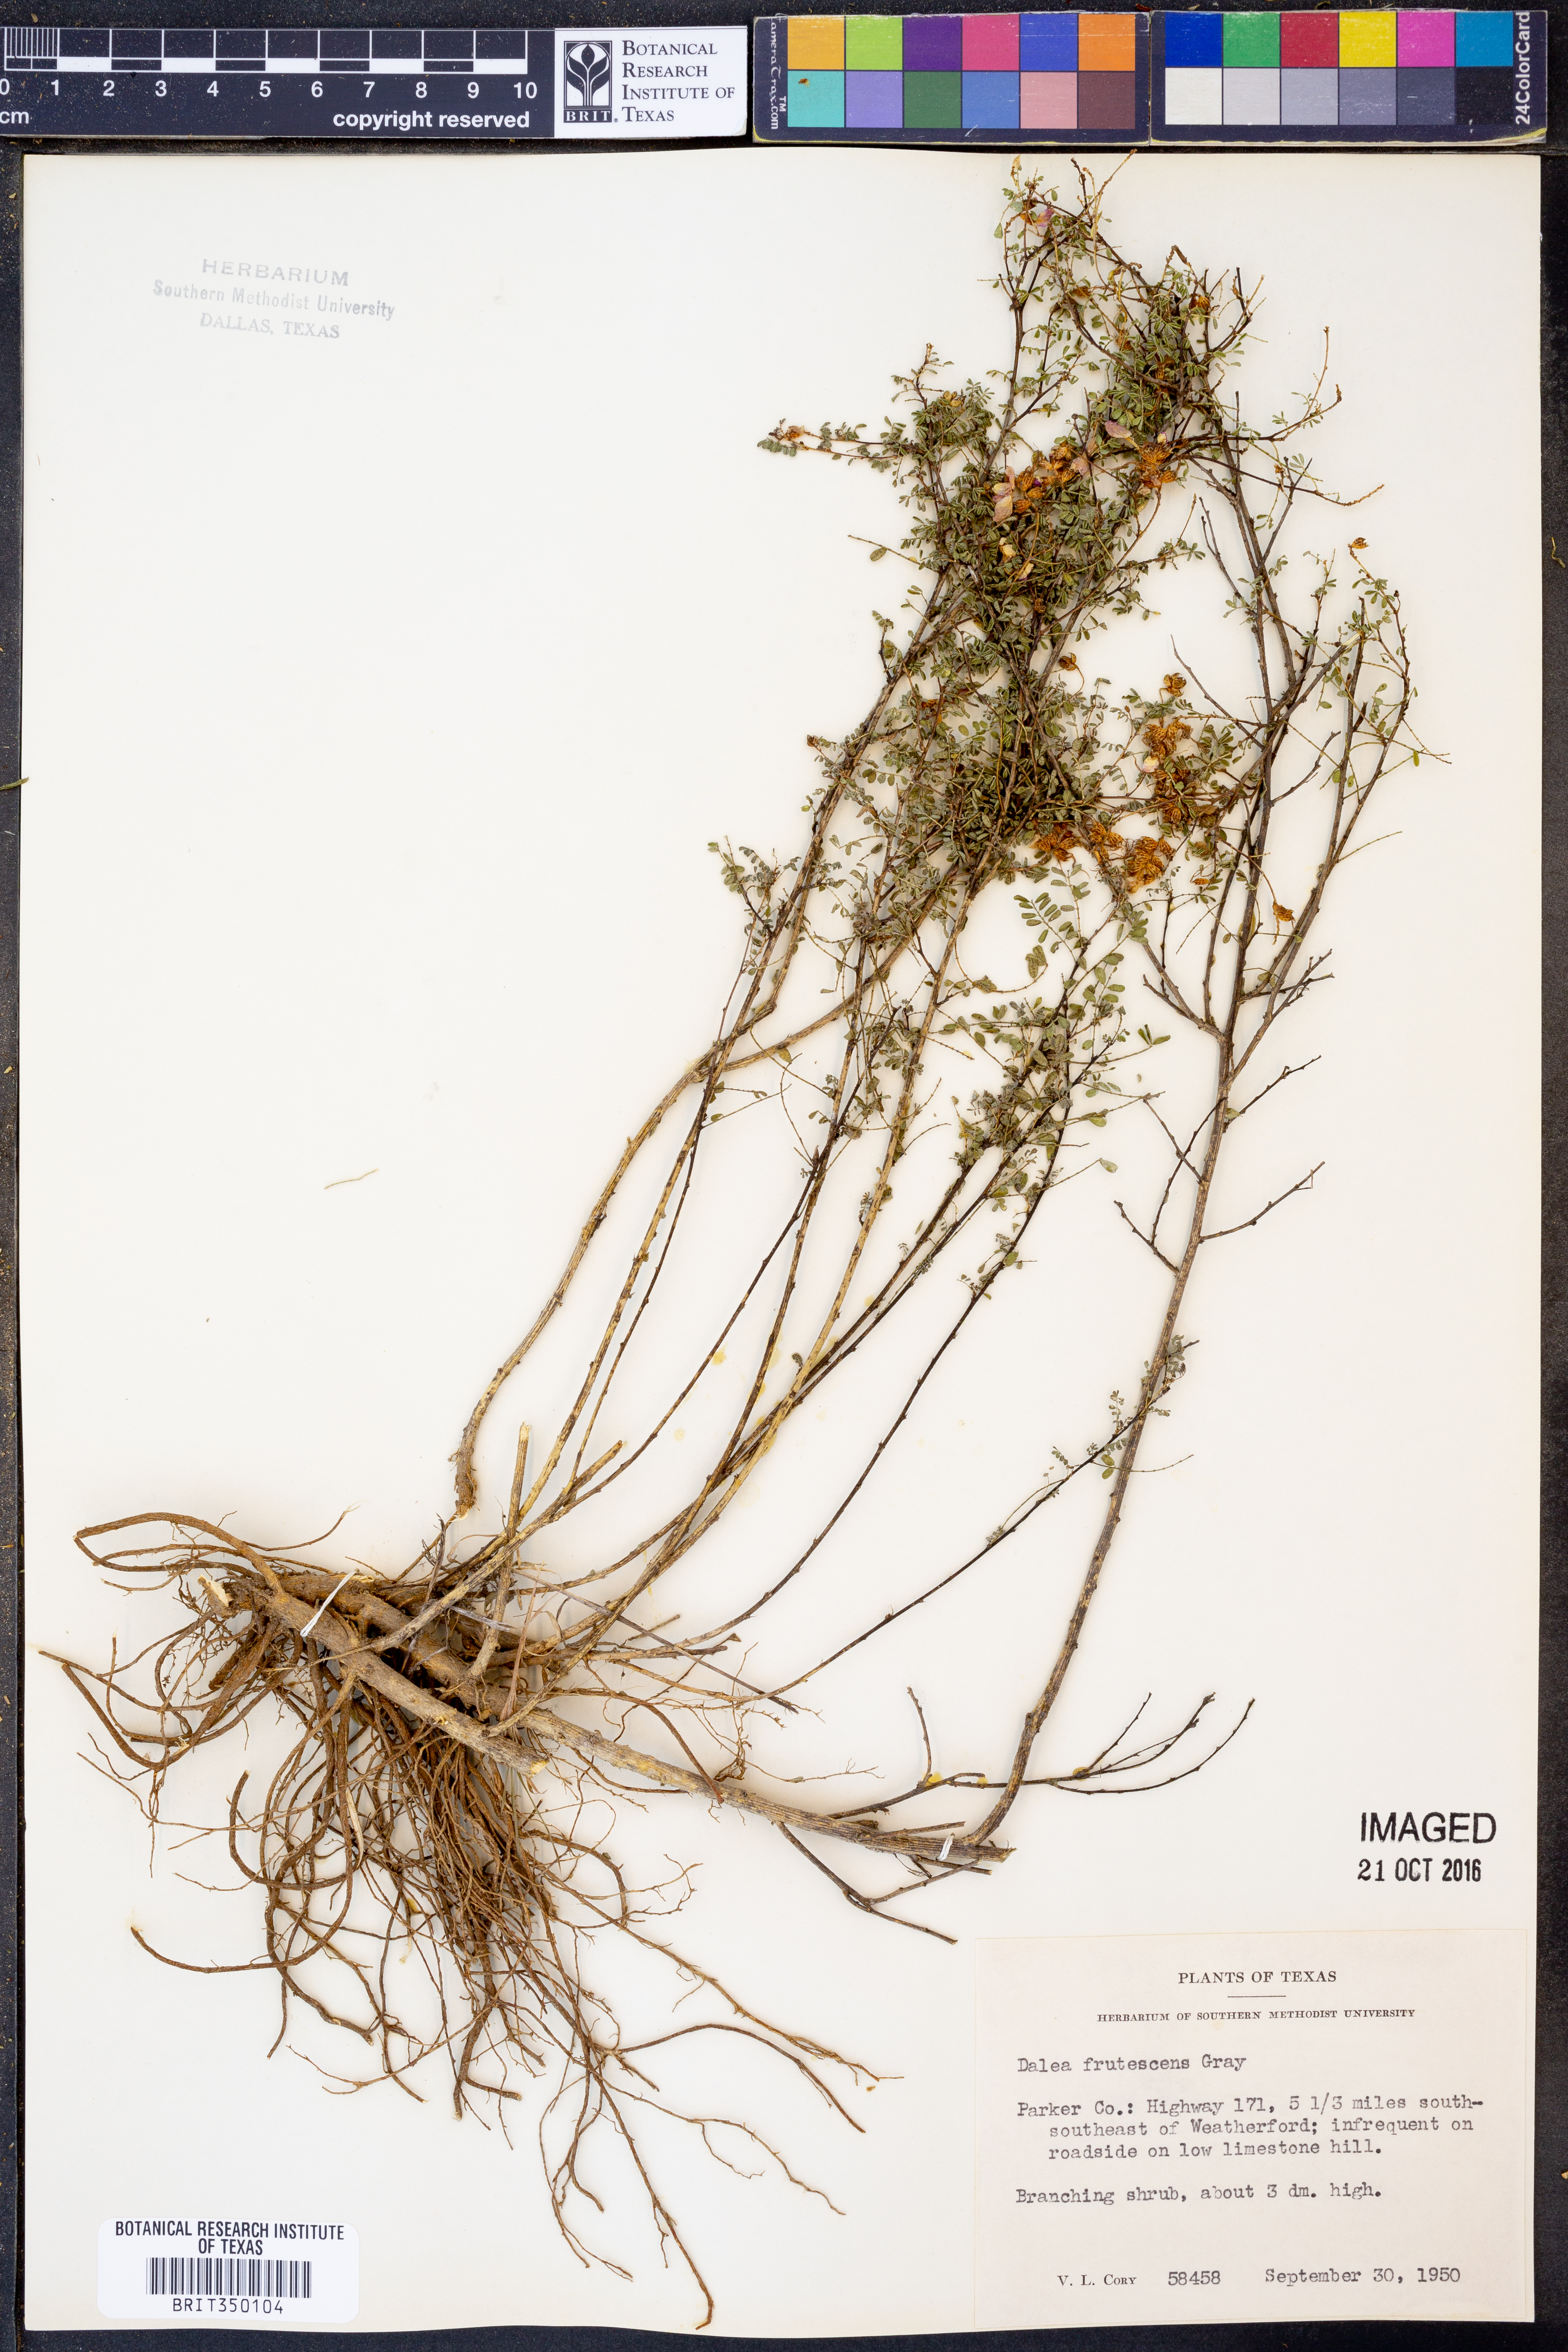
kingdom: Plantae
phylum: Tracheophyta
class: Magnoliopsida
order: Fabales
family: Fabaceae
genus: Dalea
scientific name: Dalea frutescens
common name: Black dalea
